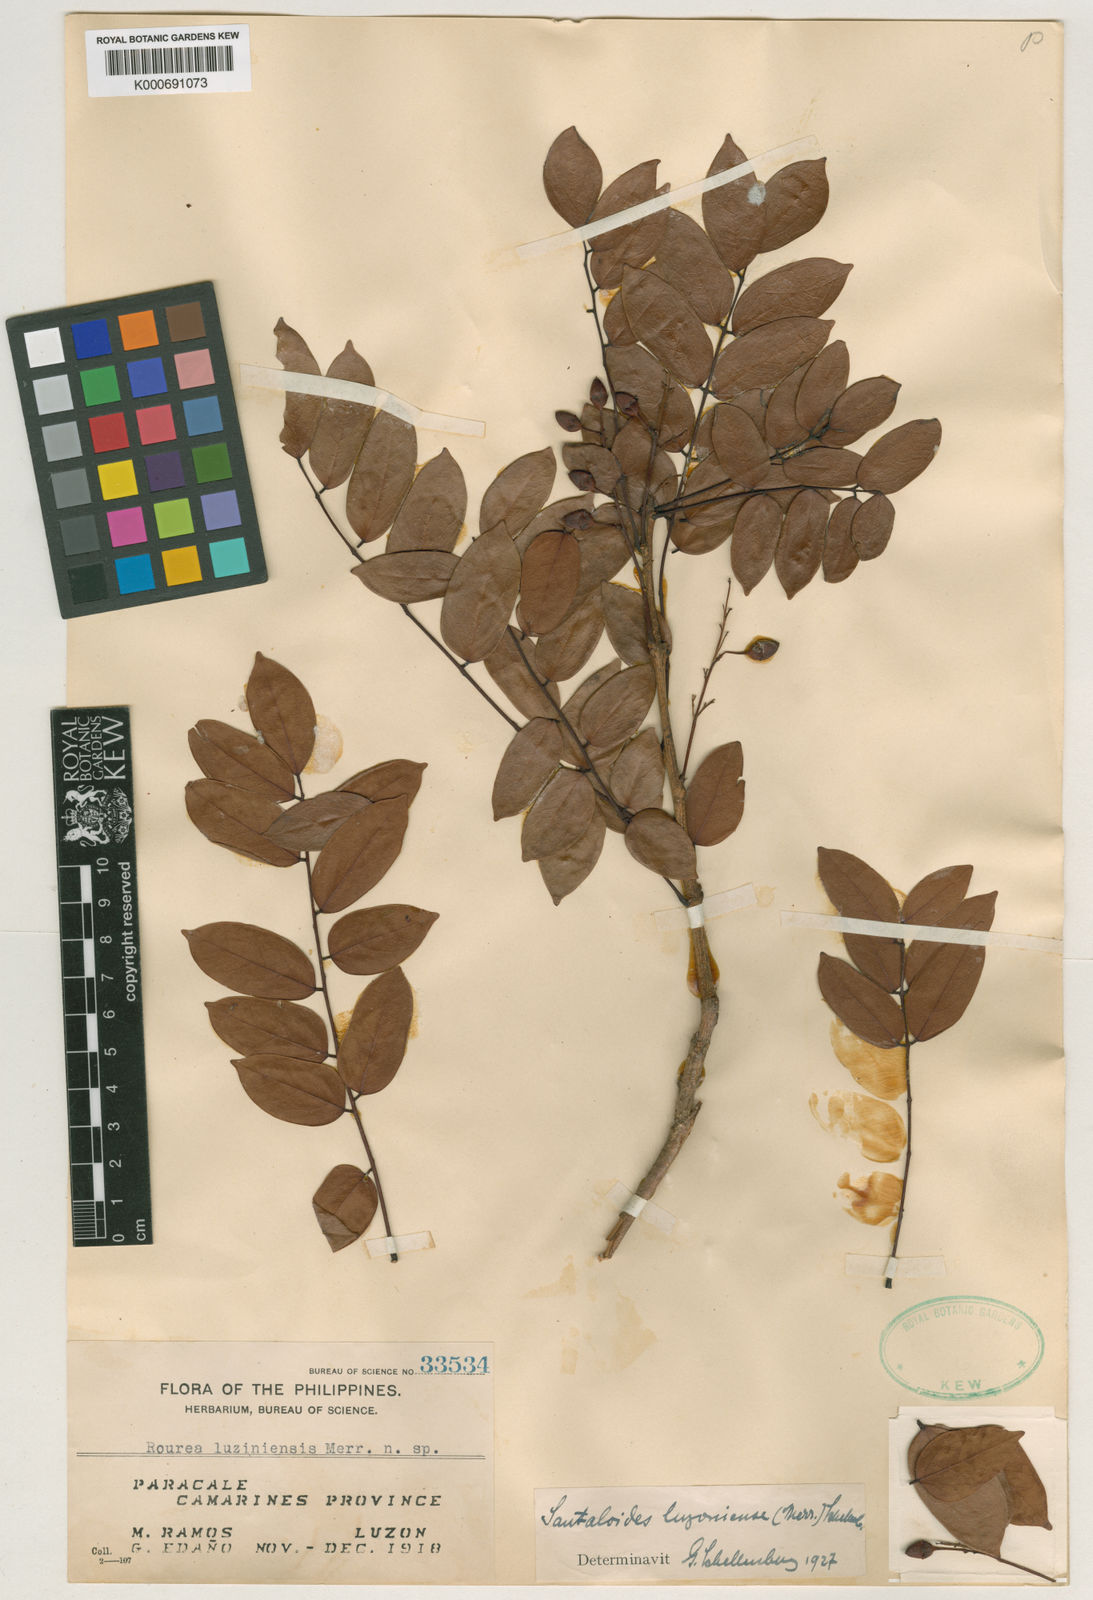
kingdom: Plantae
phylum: Tracheophyta
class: Magnoliopsida
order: Oxalidales
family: Connaraceae
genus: Rourea
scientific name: Rourea
